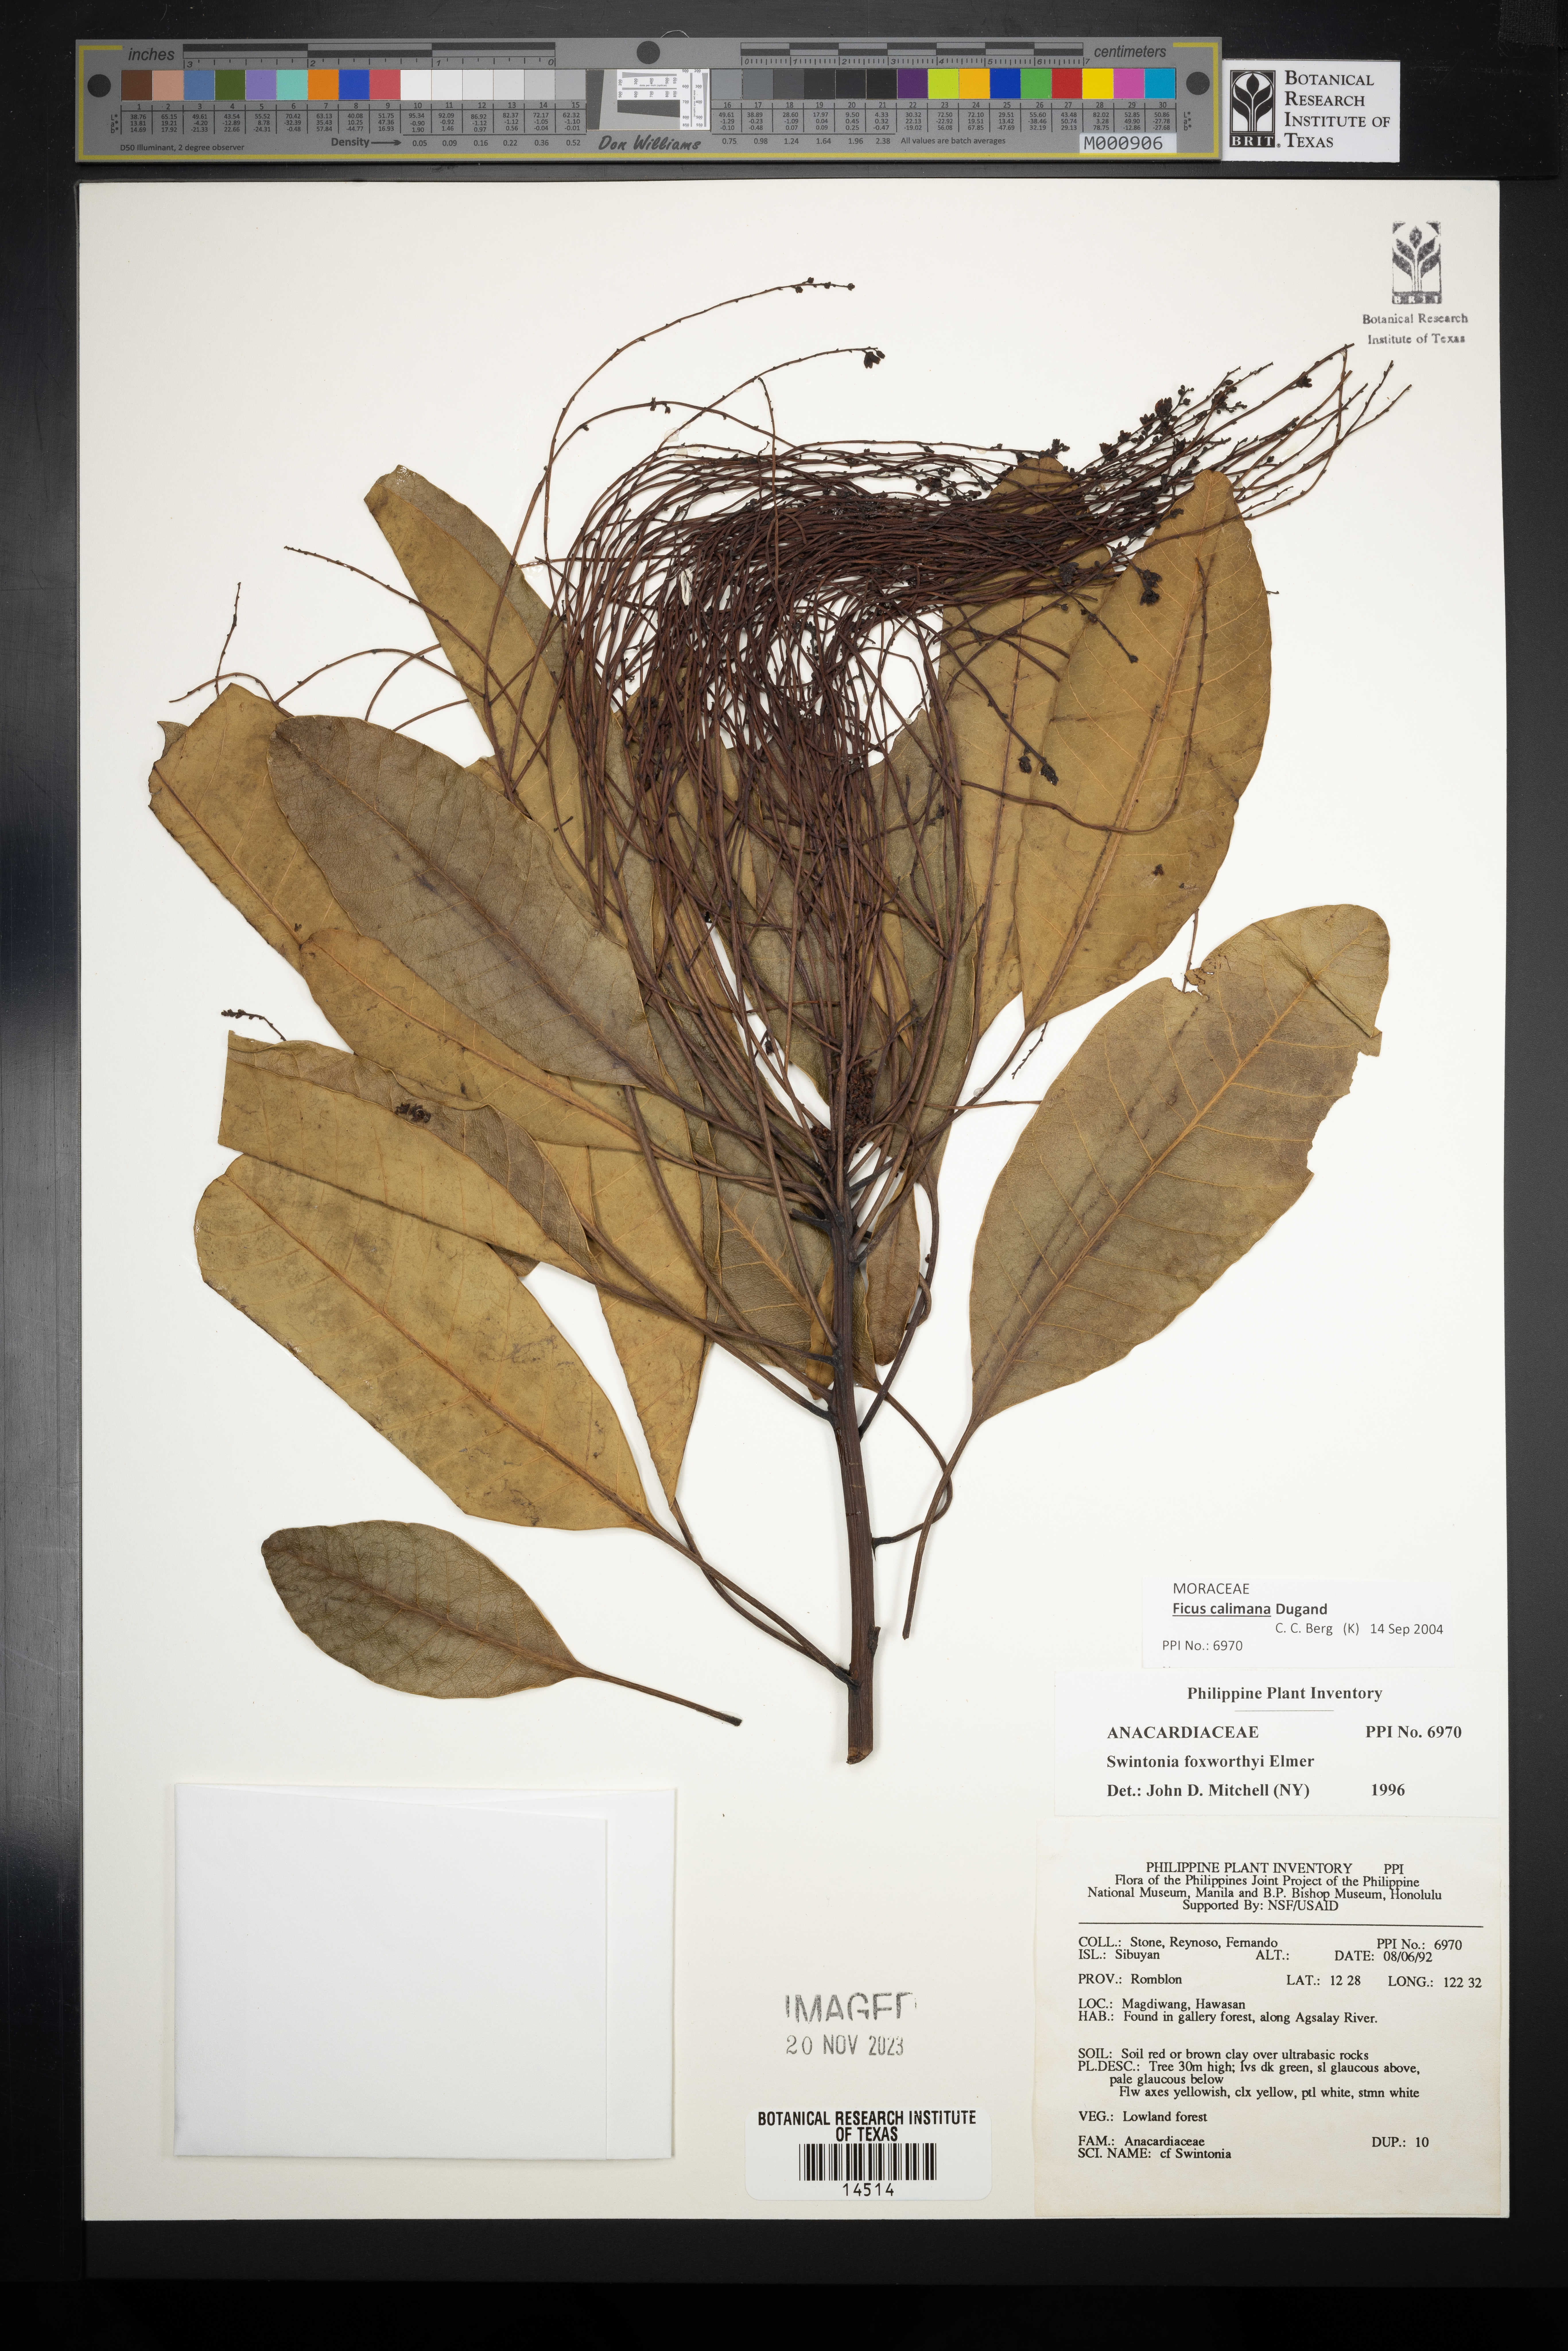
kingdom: Plantae
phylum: Tracheophyta
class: Magnoliopsida
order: Sapindales
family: Anacardiaceae
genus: Swintonia
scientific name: Swintonia foxworthyi
